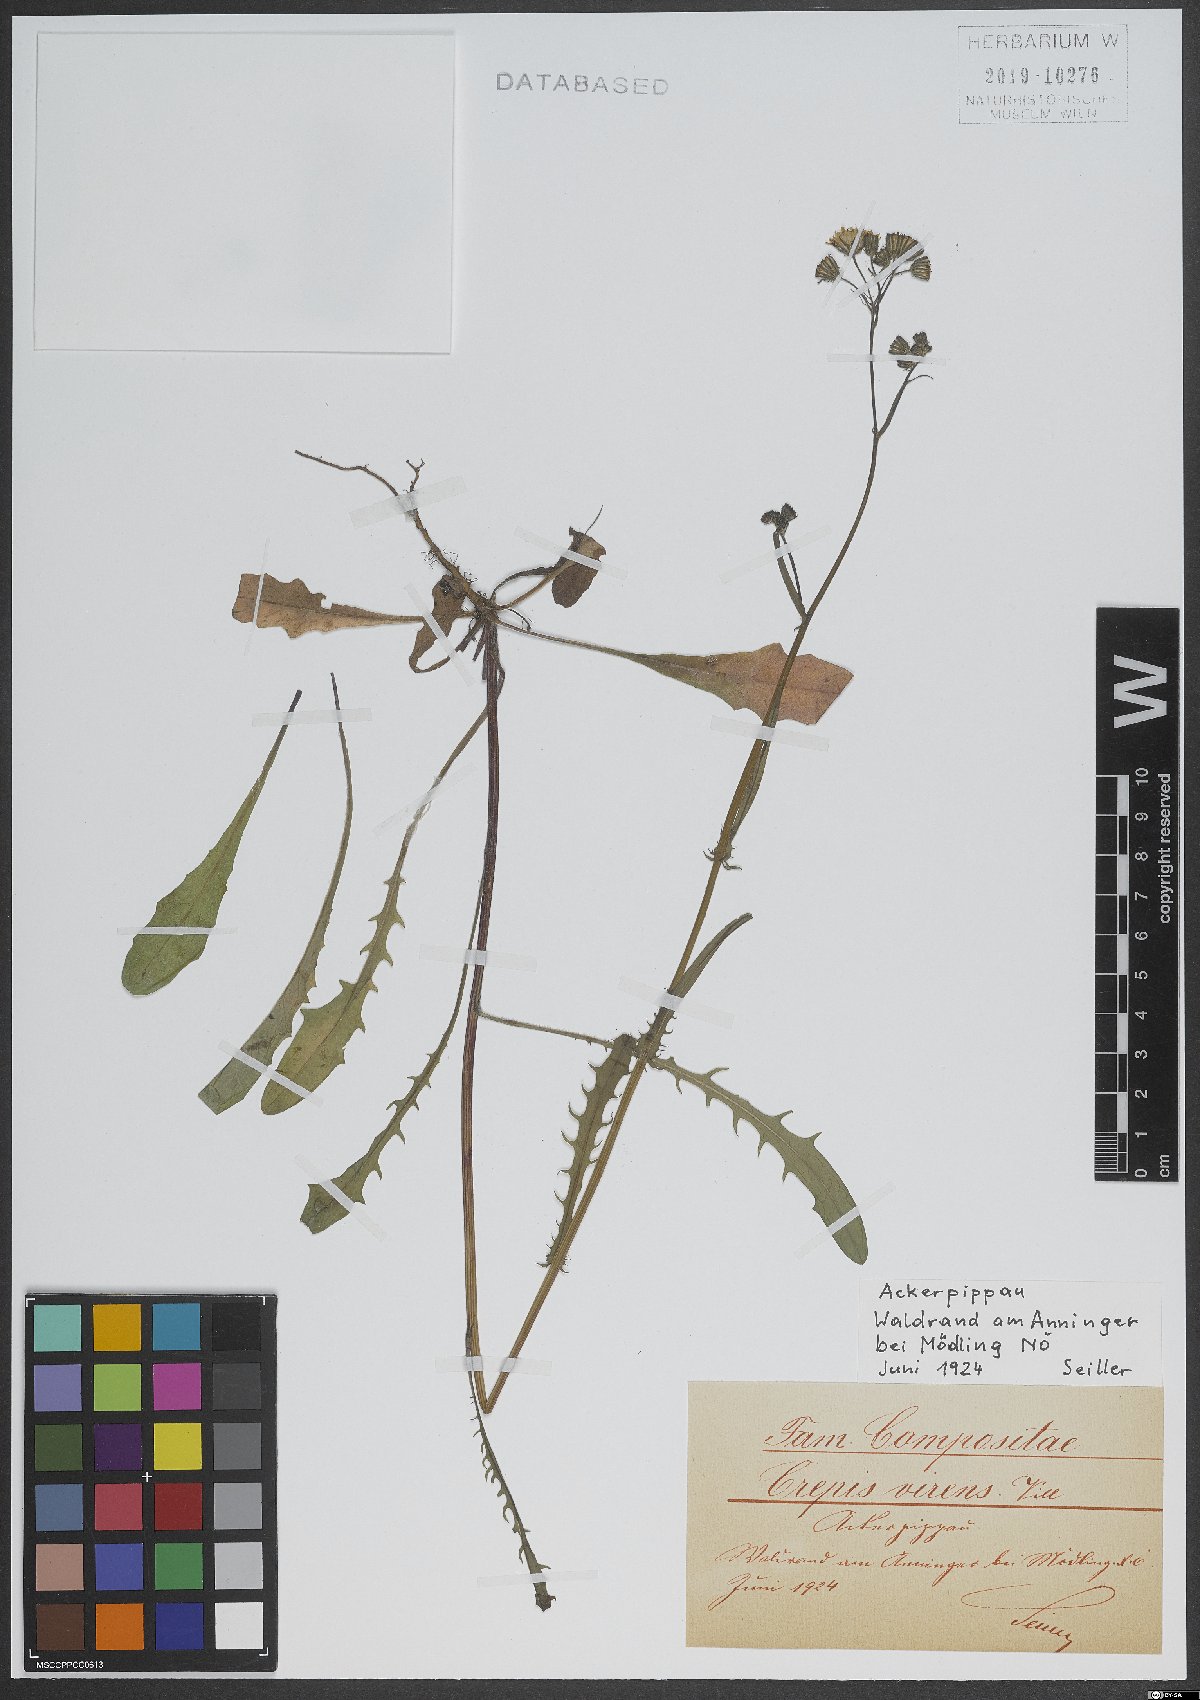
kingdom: Plantae
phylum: Tracheophyta
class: Magnoliopsida
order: Asterales
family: Asteraceae
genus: Crepis
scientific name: Crepis capillaris
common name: Smooth hawksbeard
